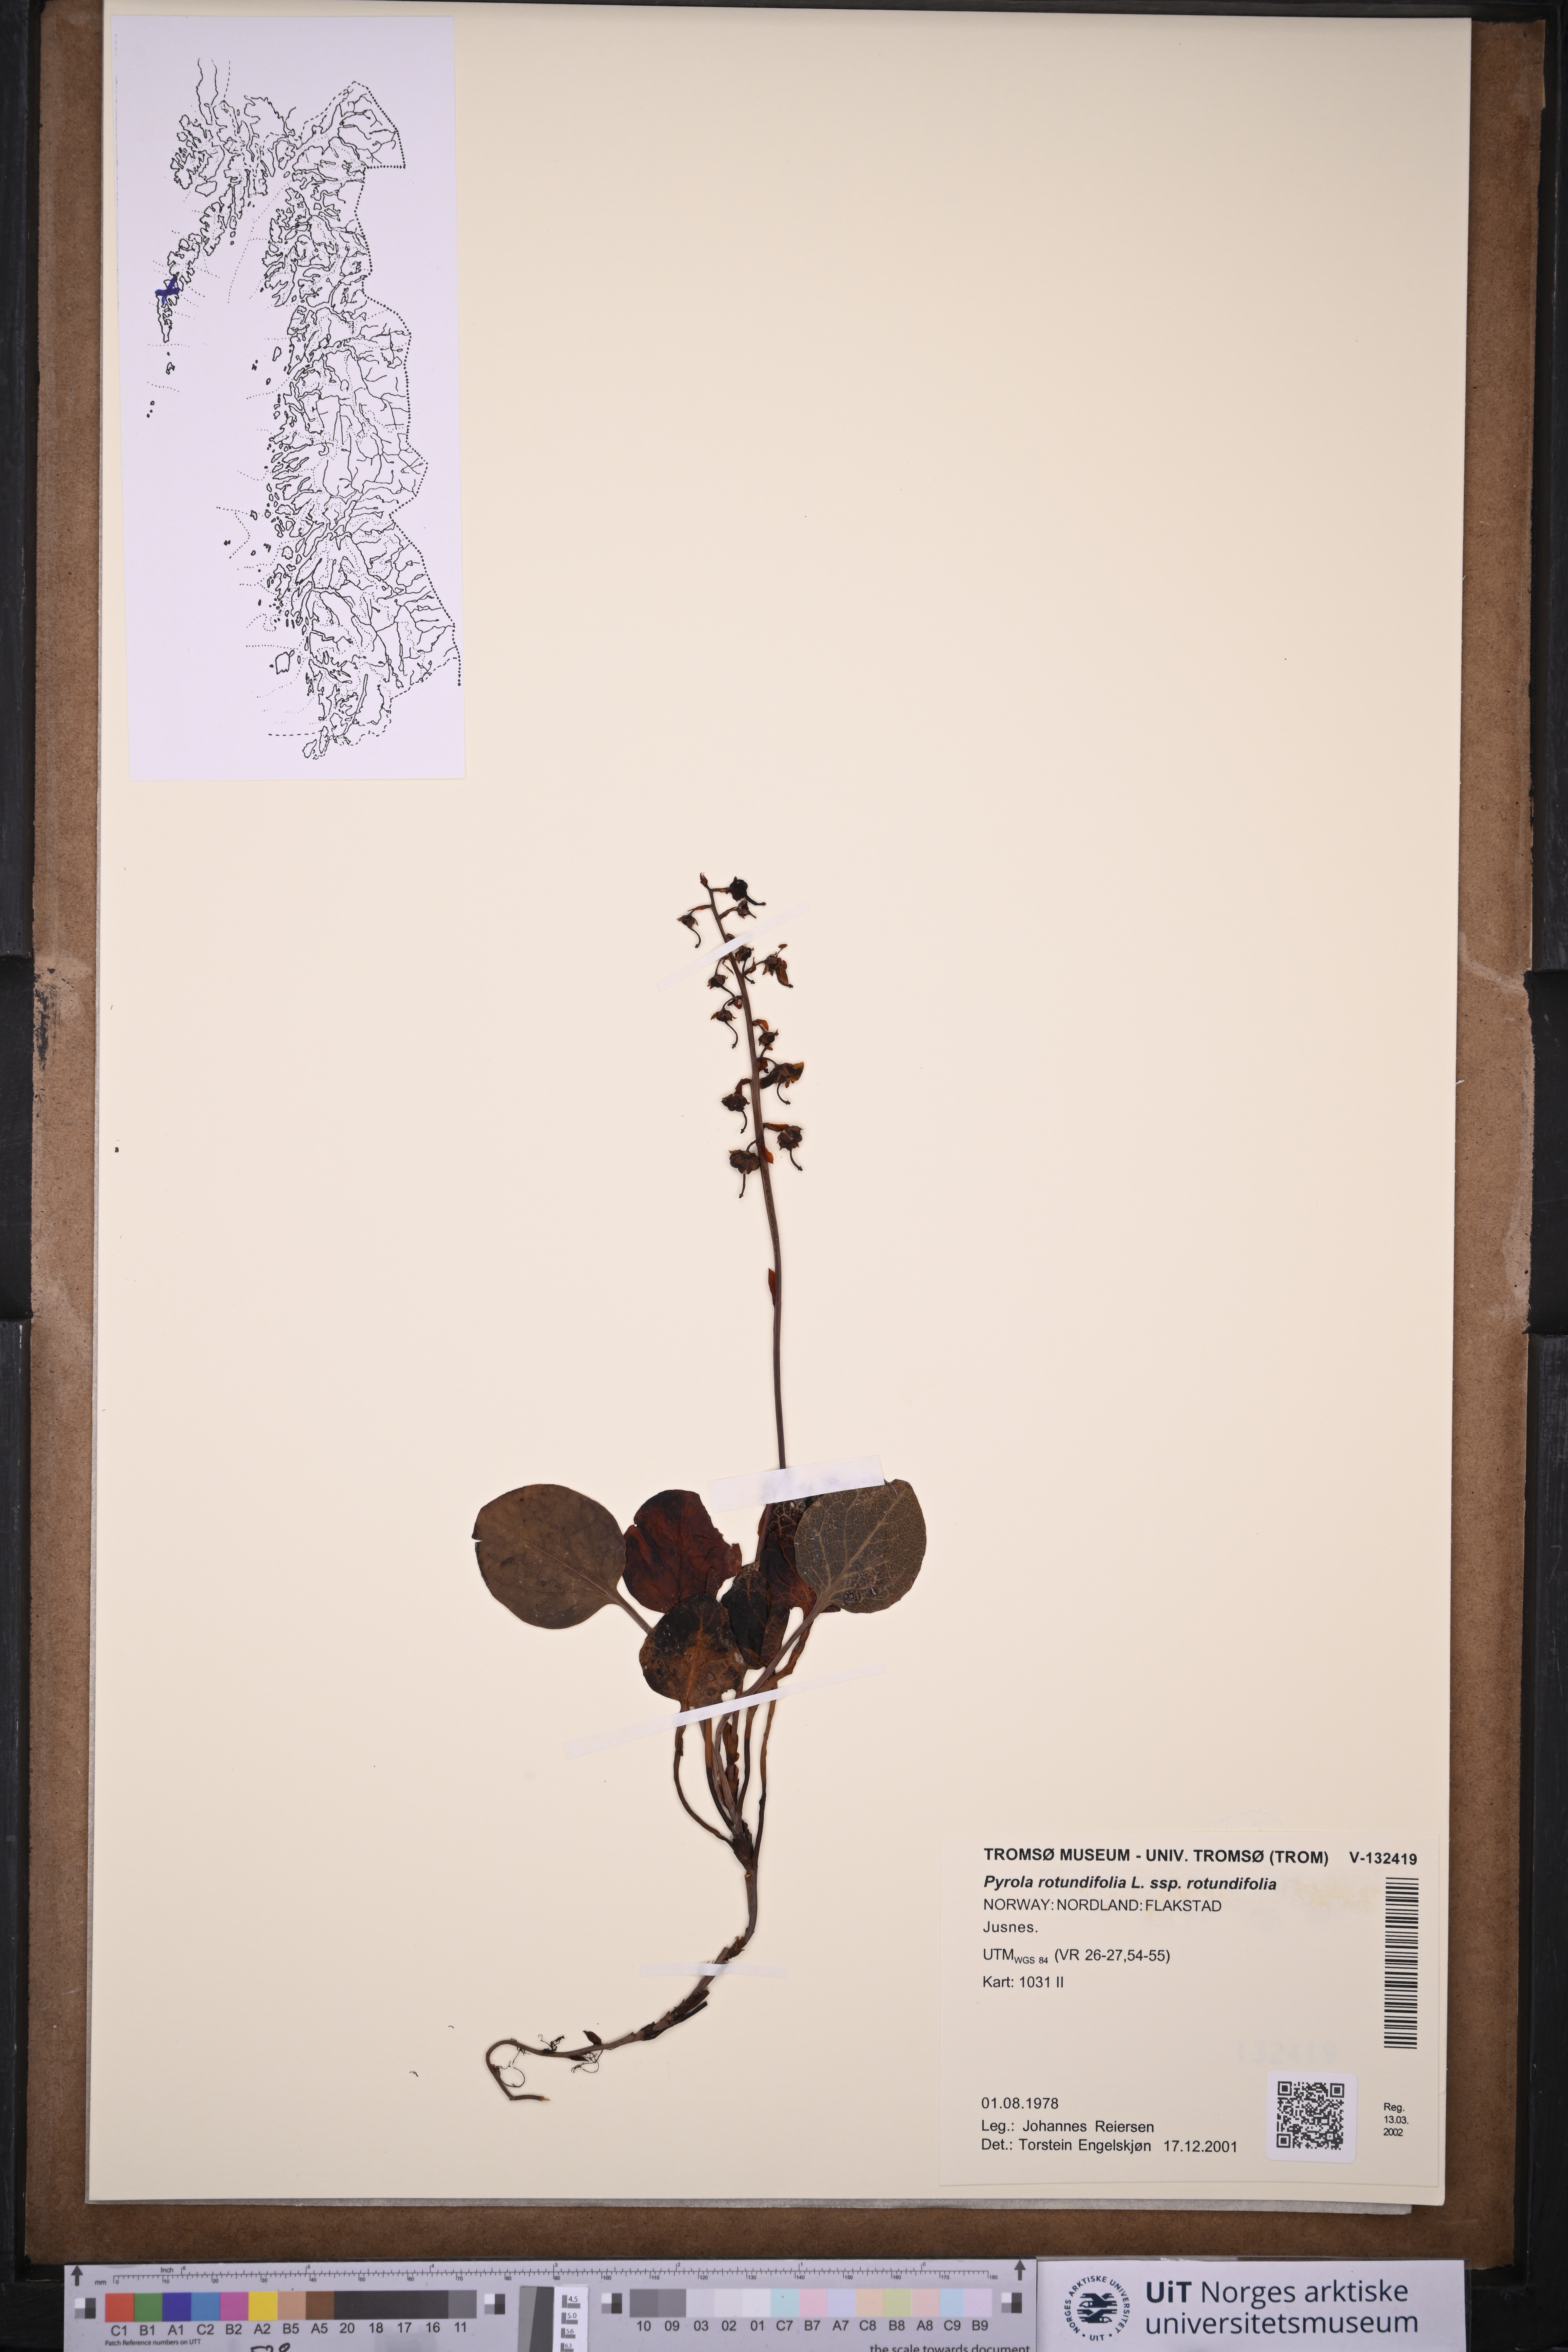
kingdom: Plantae
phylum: Tracheophyta
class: Magnoliopsida
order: Ericales
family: Ericaceae
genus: Pyrola
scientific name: Pyrola rotundifolia
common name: Round-leaved wintergreen
